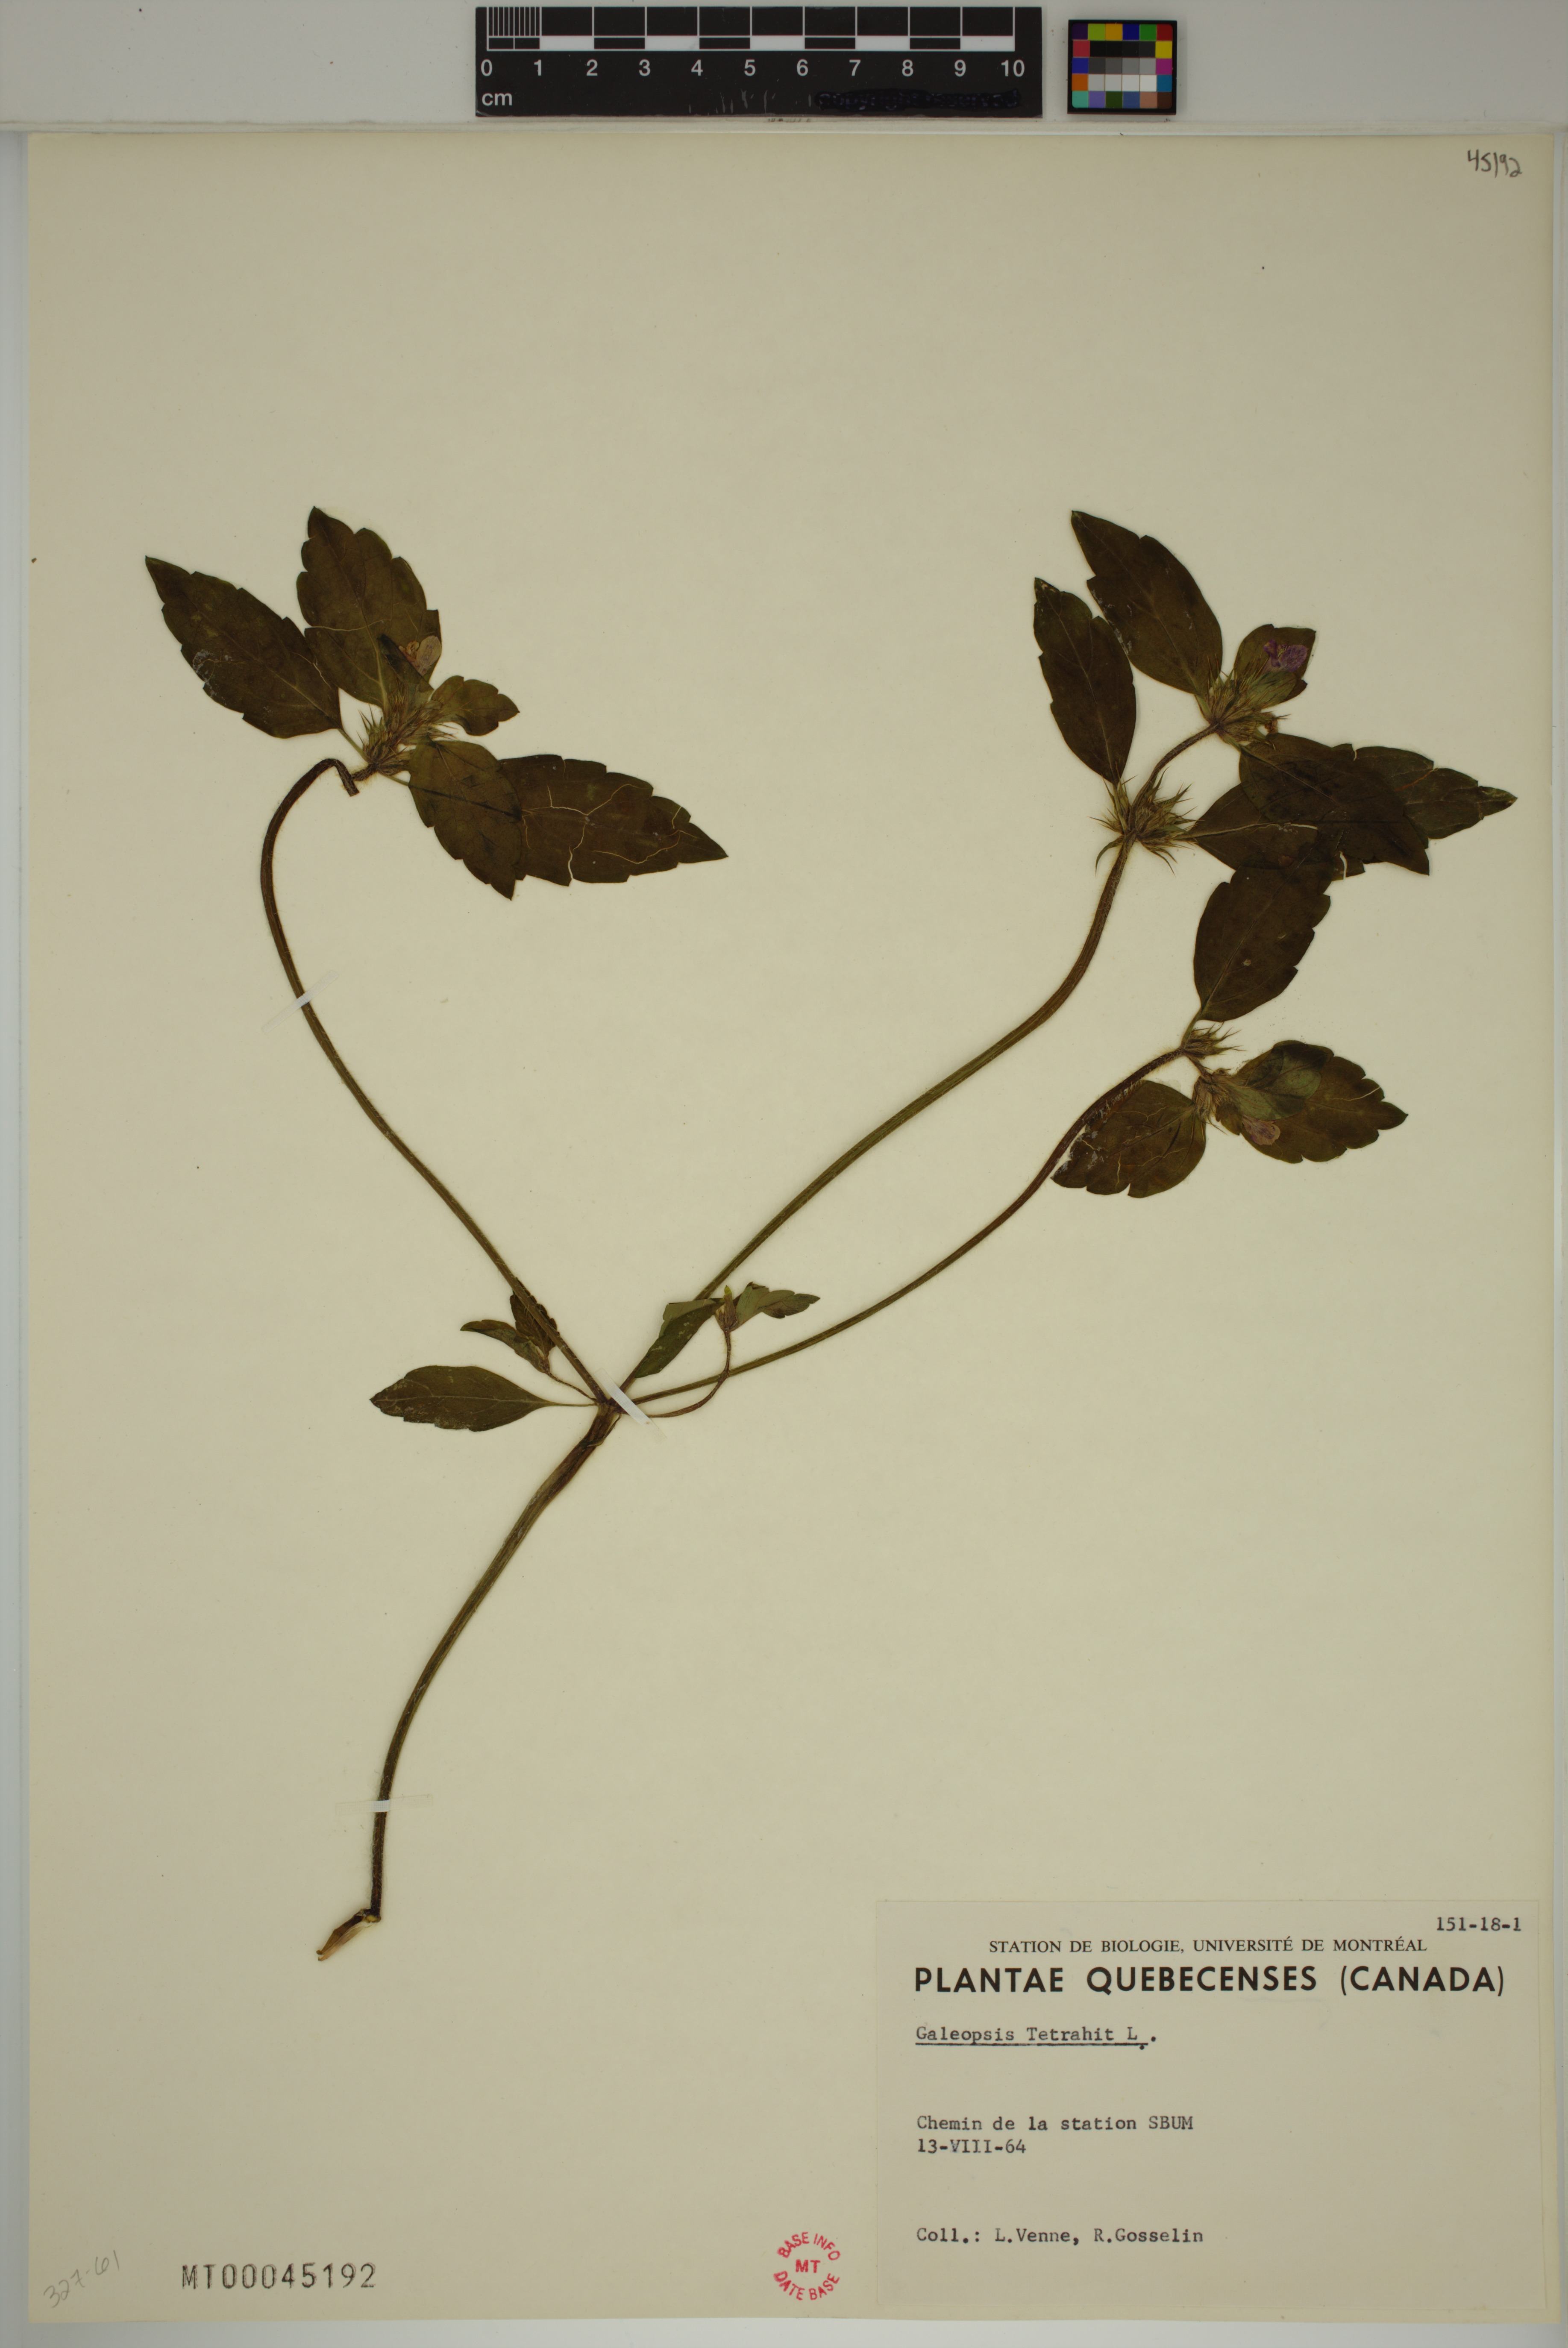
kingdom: Plantae
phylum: Tracheophyta
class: Magnoliopsida
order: Lamiales
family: Lamiaceae
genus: Galeopsis
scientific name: Galeopsis tetrahit
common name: Common hemp-nettle
